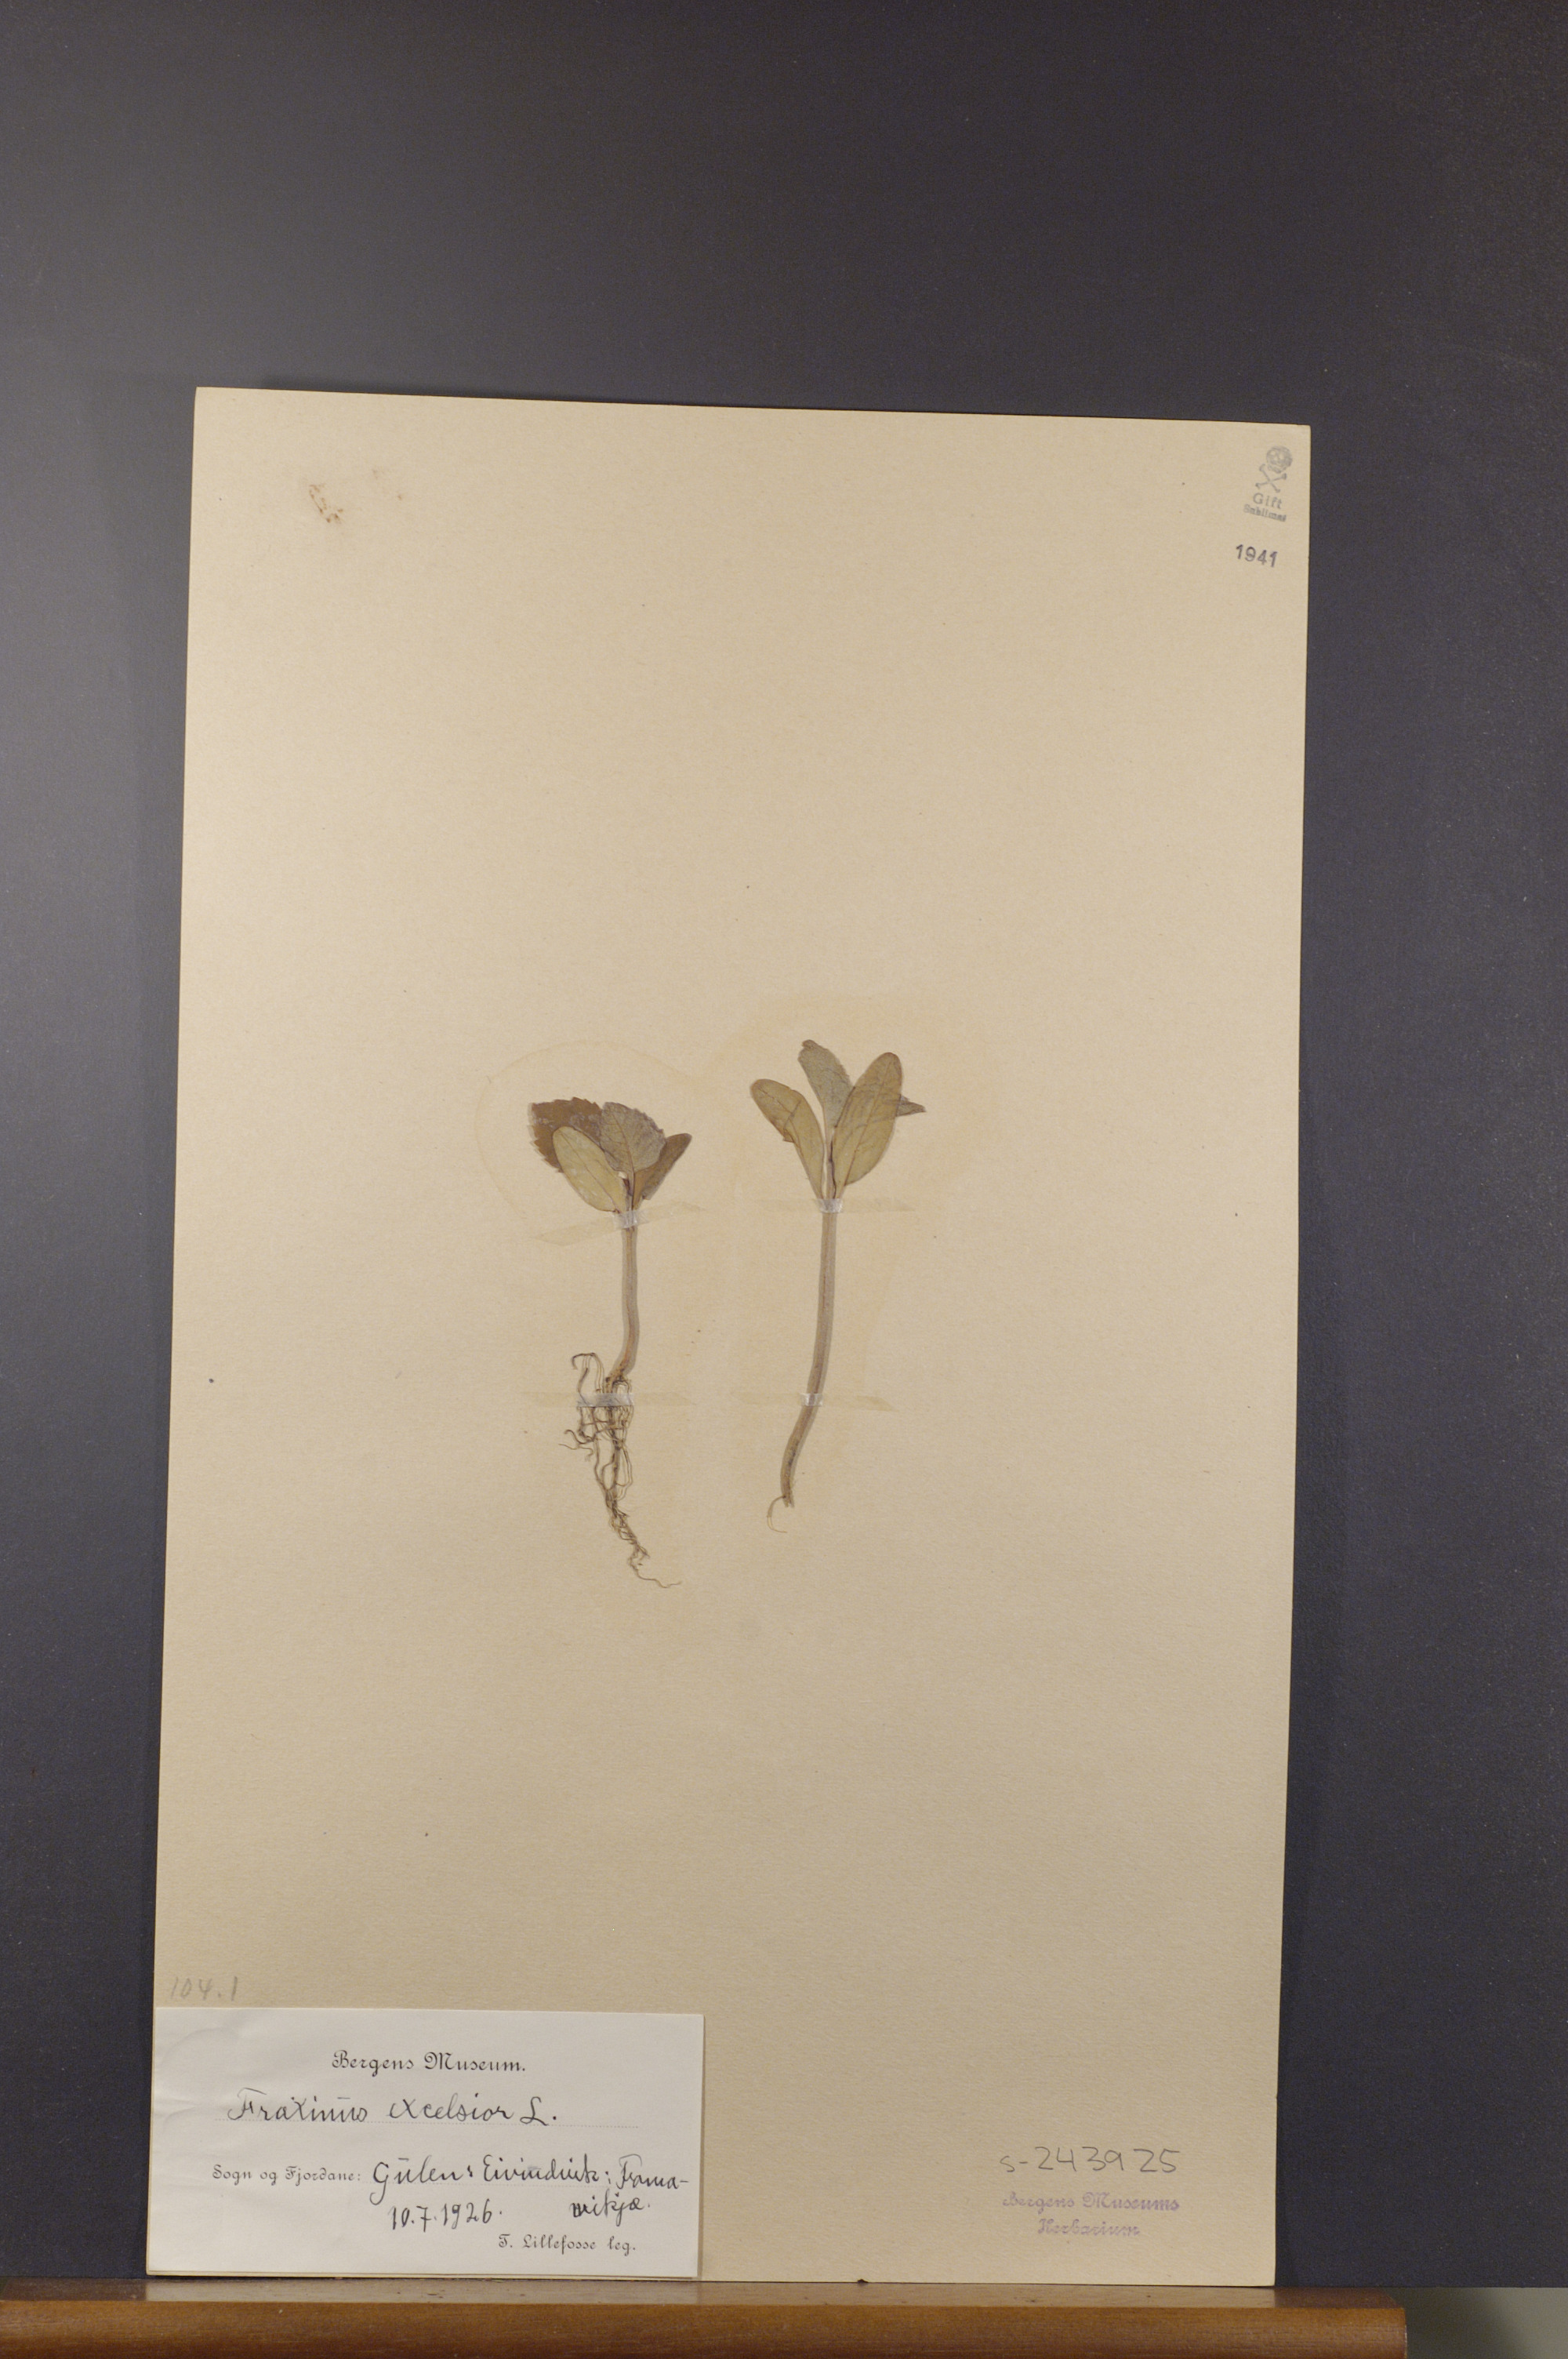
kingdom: Plantae
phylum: Tracheophyta
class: Magnoliopsida
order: Lamiales
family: Oleaceae
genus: Fraxinus
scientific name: Fraxinus excelsior
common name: European ash
